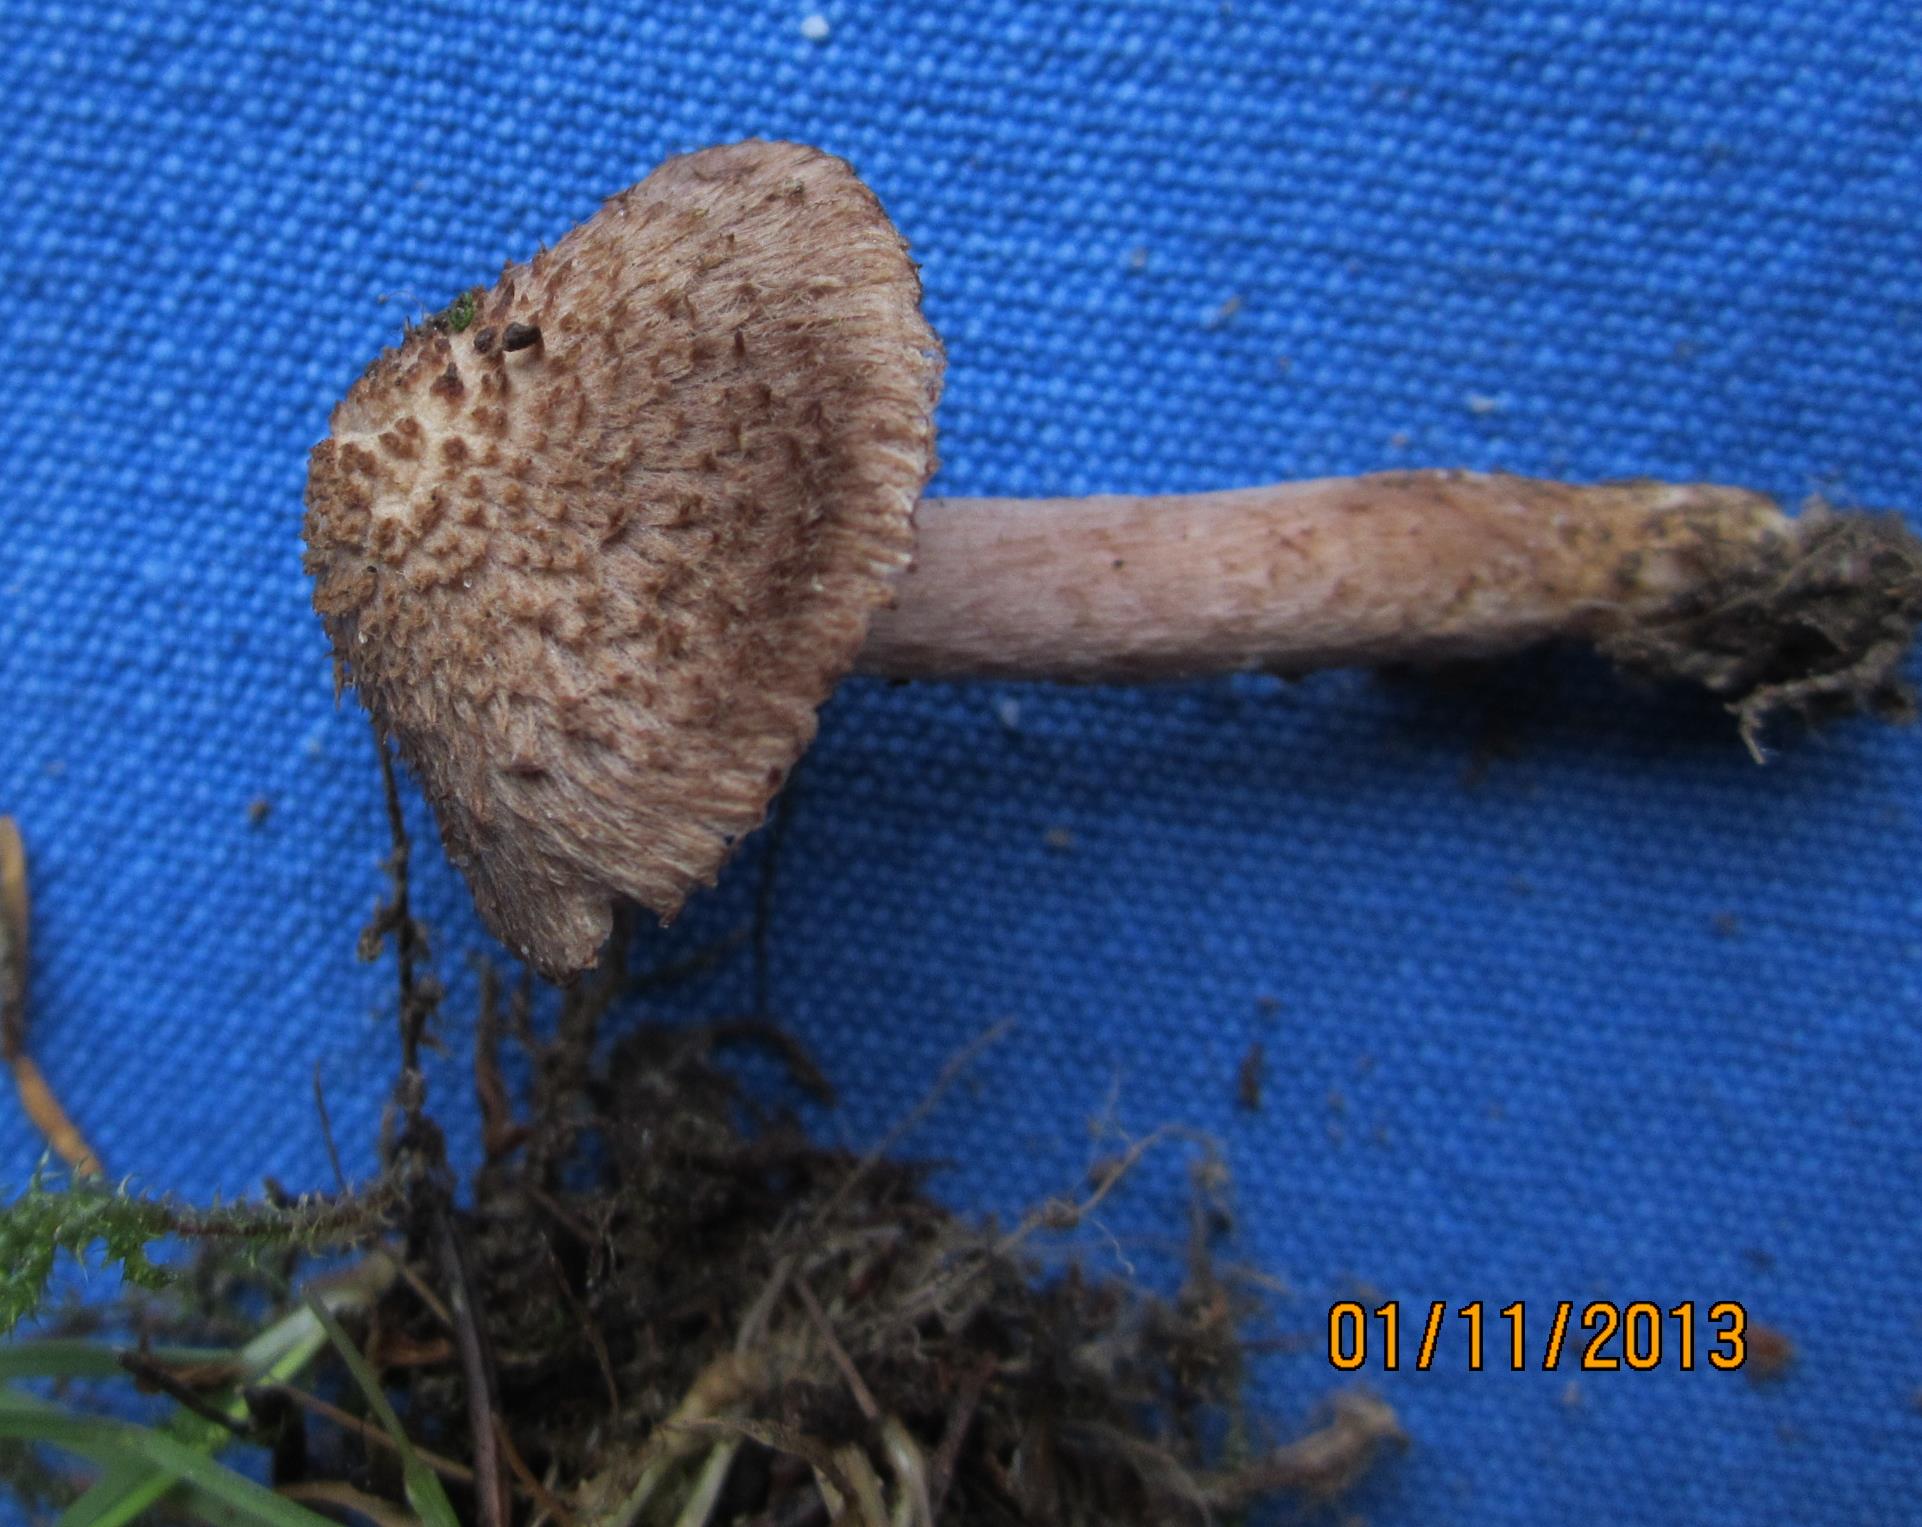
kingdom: Fungi
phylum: Basidiomycota
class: Agaricomycetes
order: Agaricales
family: Inocybaceae
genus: Inocybe
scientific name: Inocybe
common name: trævlhat
